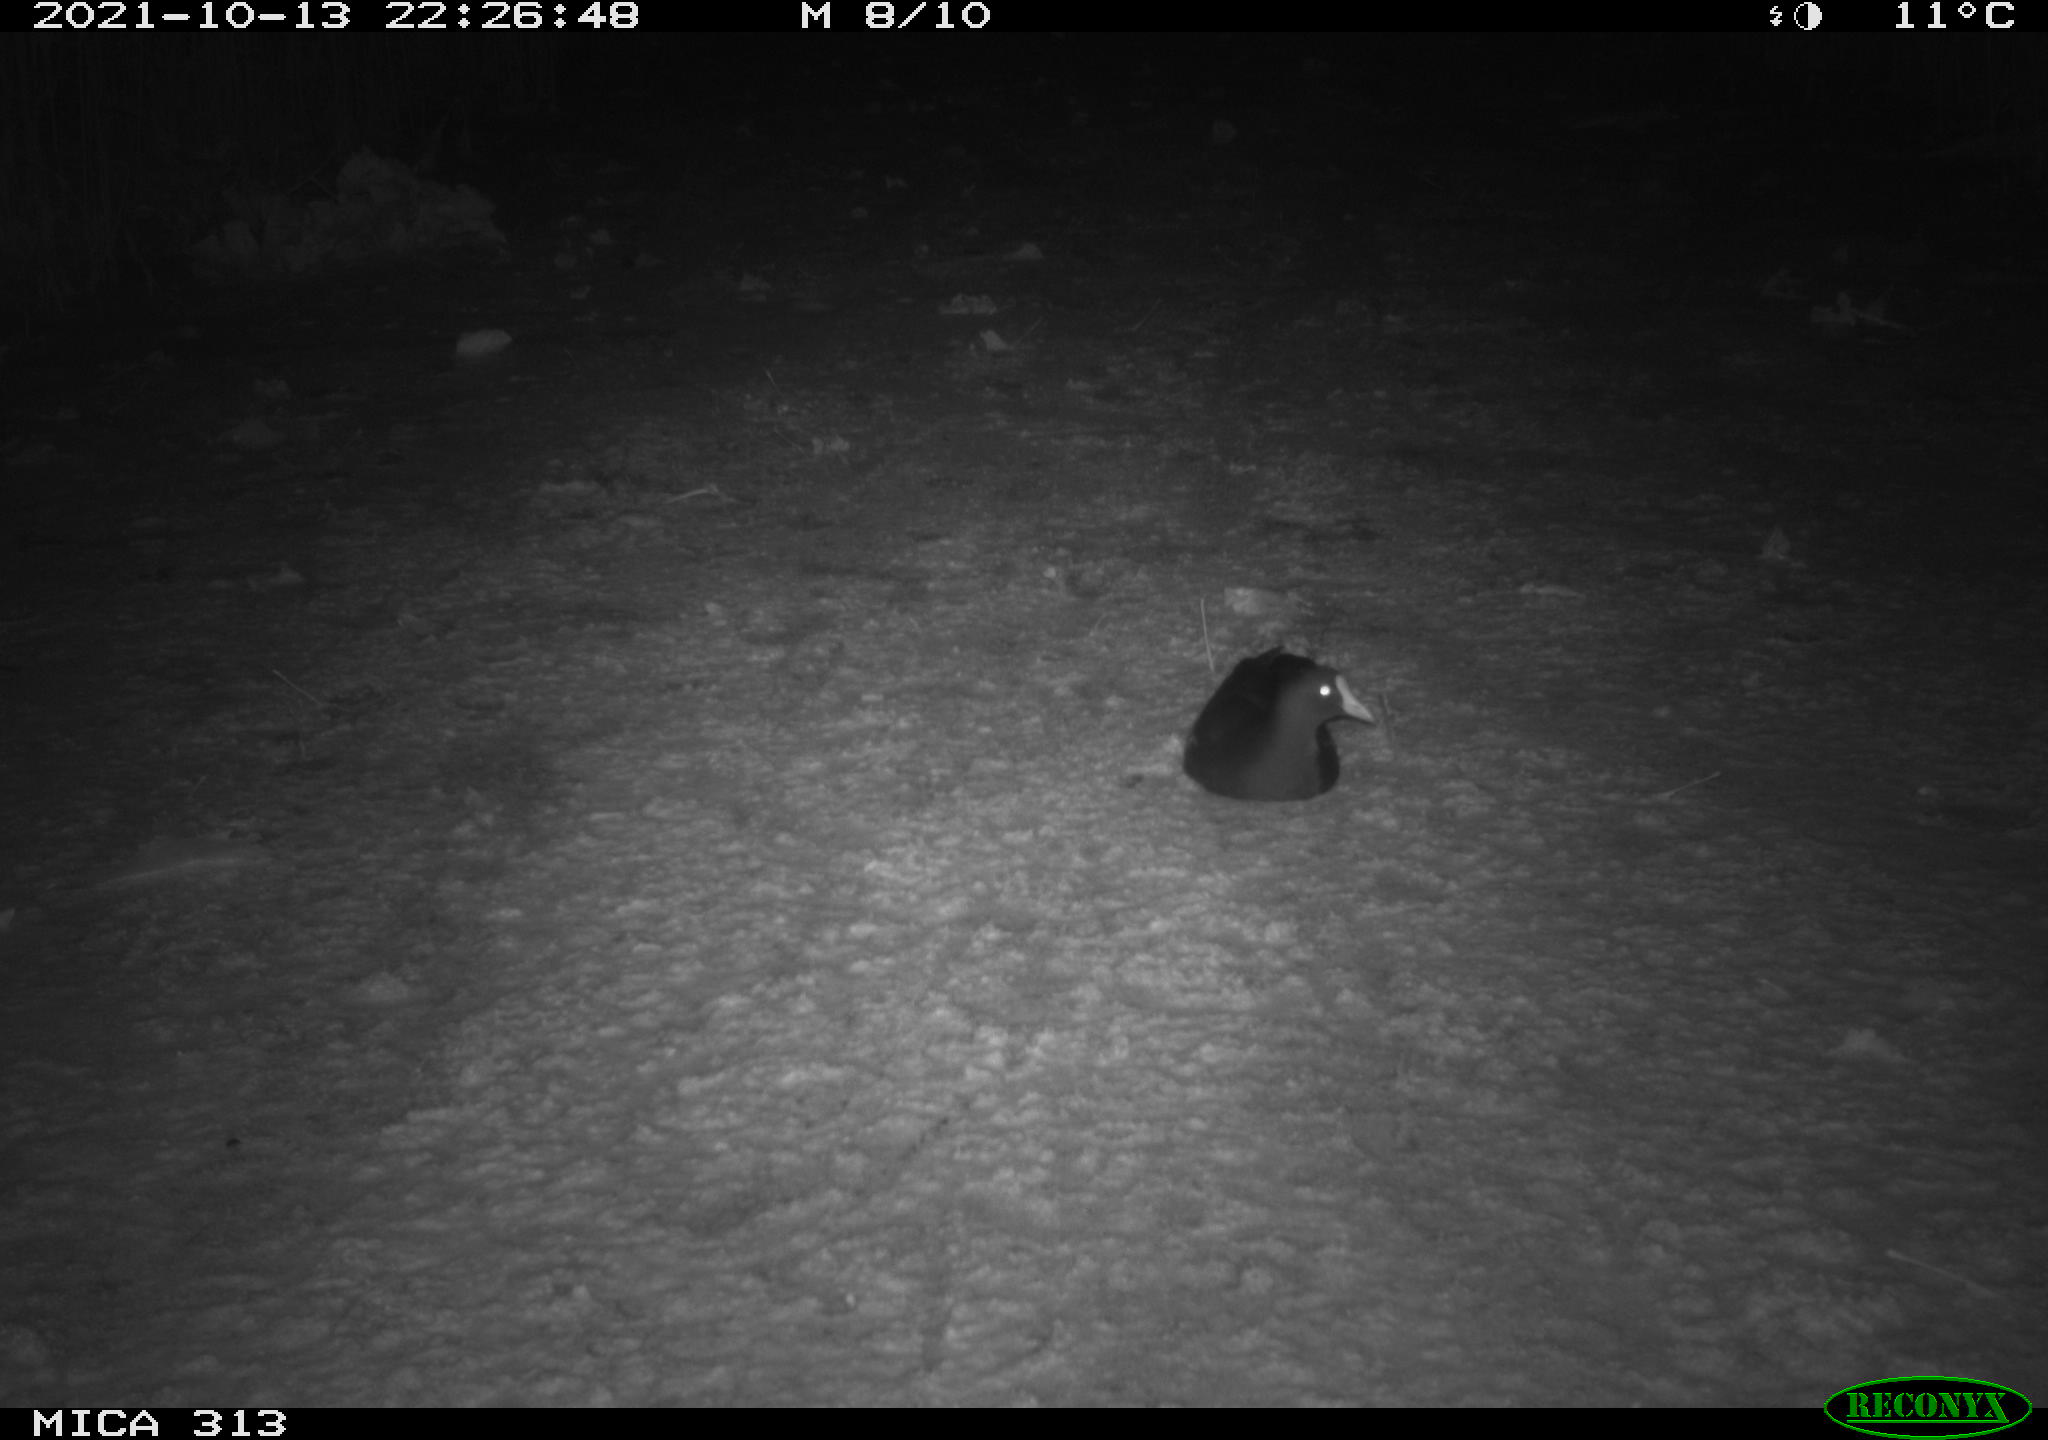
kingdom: Animalia
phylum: Chordata
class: Aves
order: Gruiformes
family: Rallidae
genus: Gallinula
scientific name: Gallinula chloropus
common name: Common moorhen
